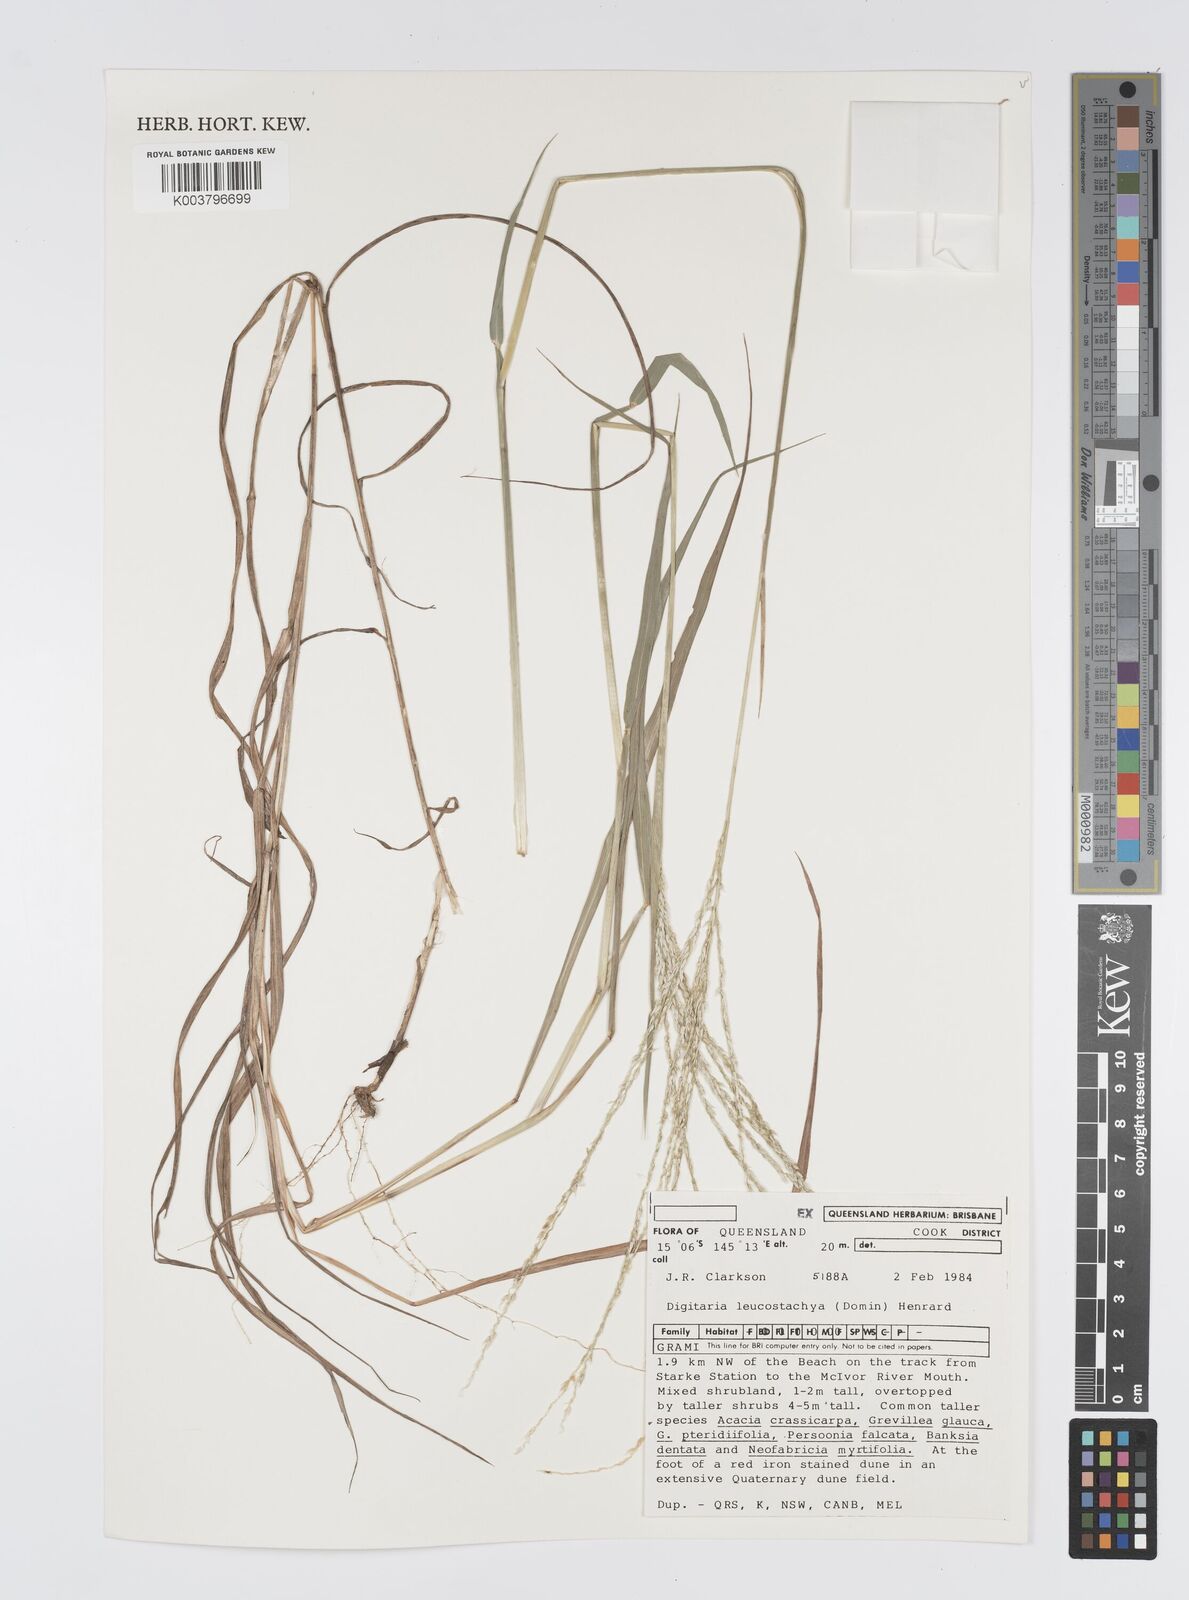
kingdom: Plantae
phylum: Tracheophyta
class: Liliopsida
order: Poales
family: Poaceae
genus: Digitaria
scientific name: Digitaria leucostachya
